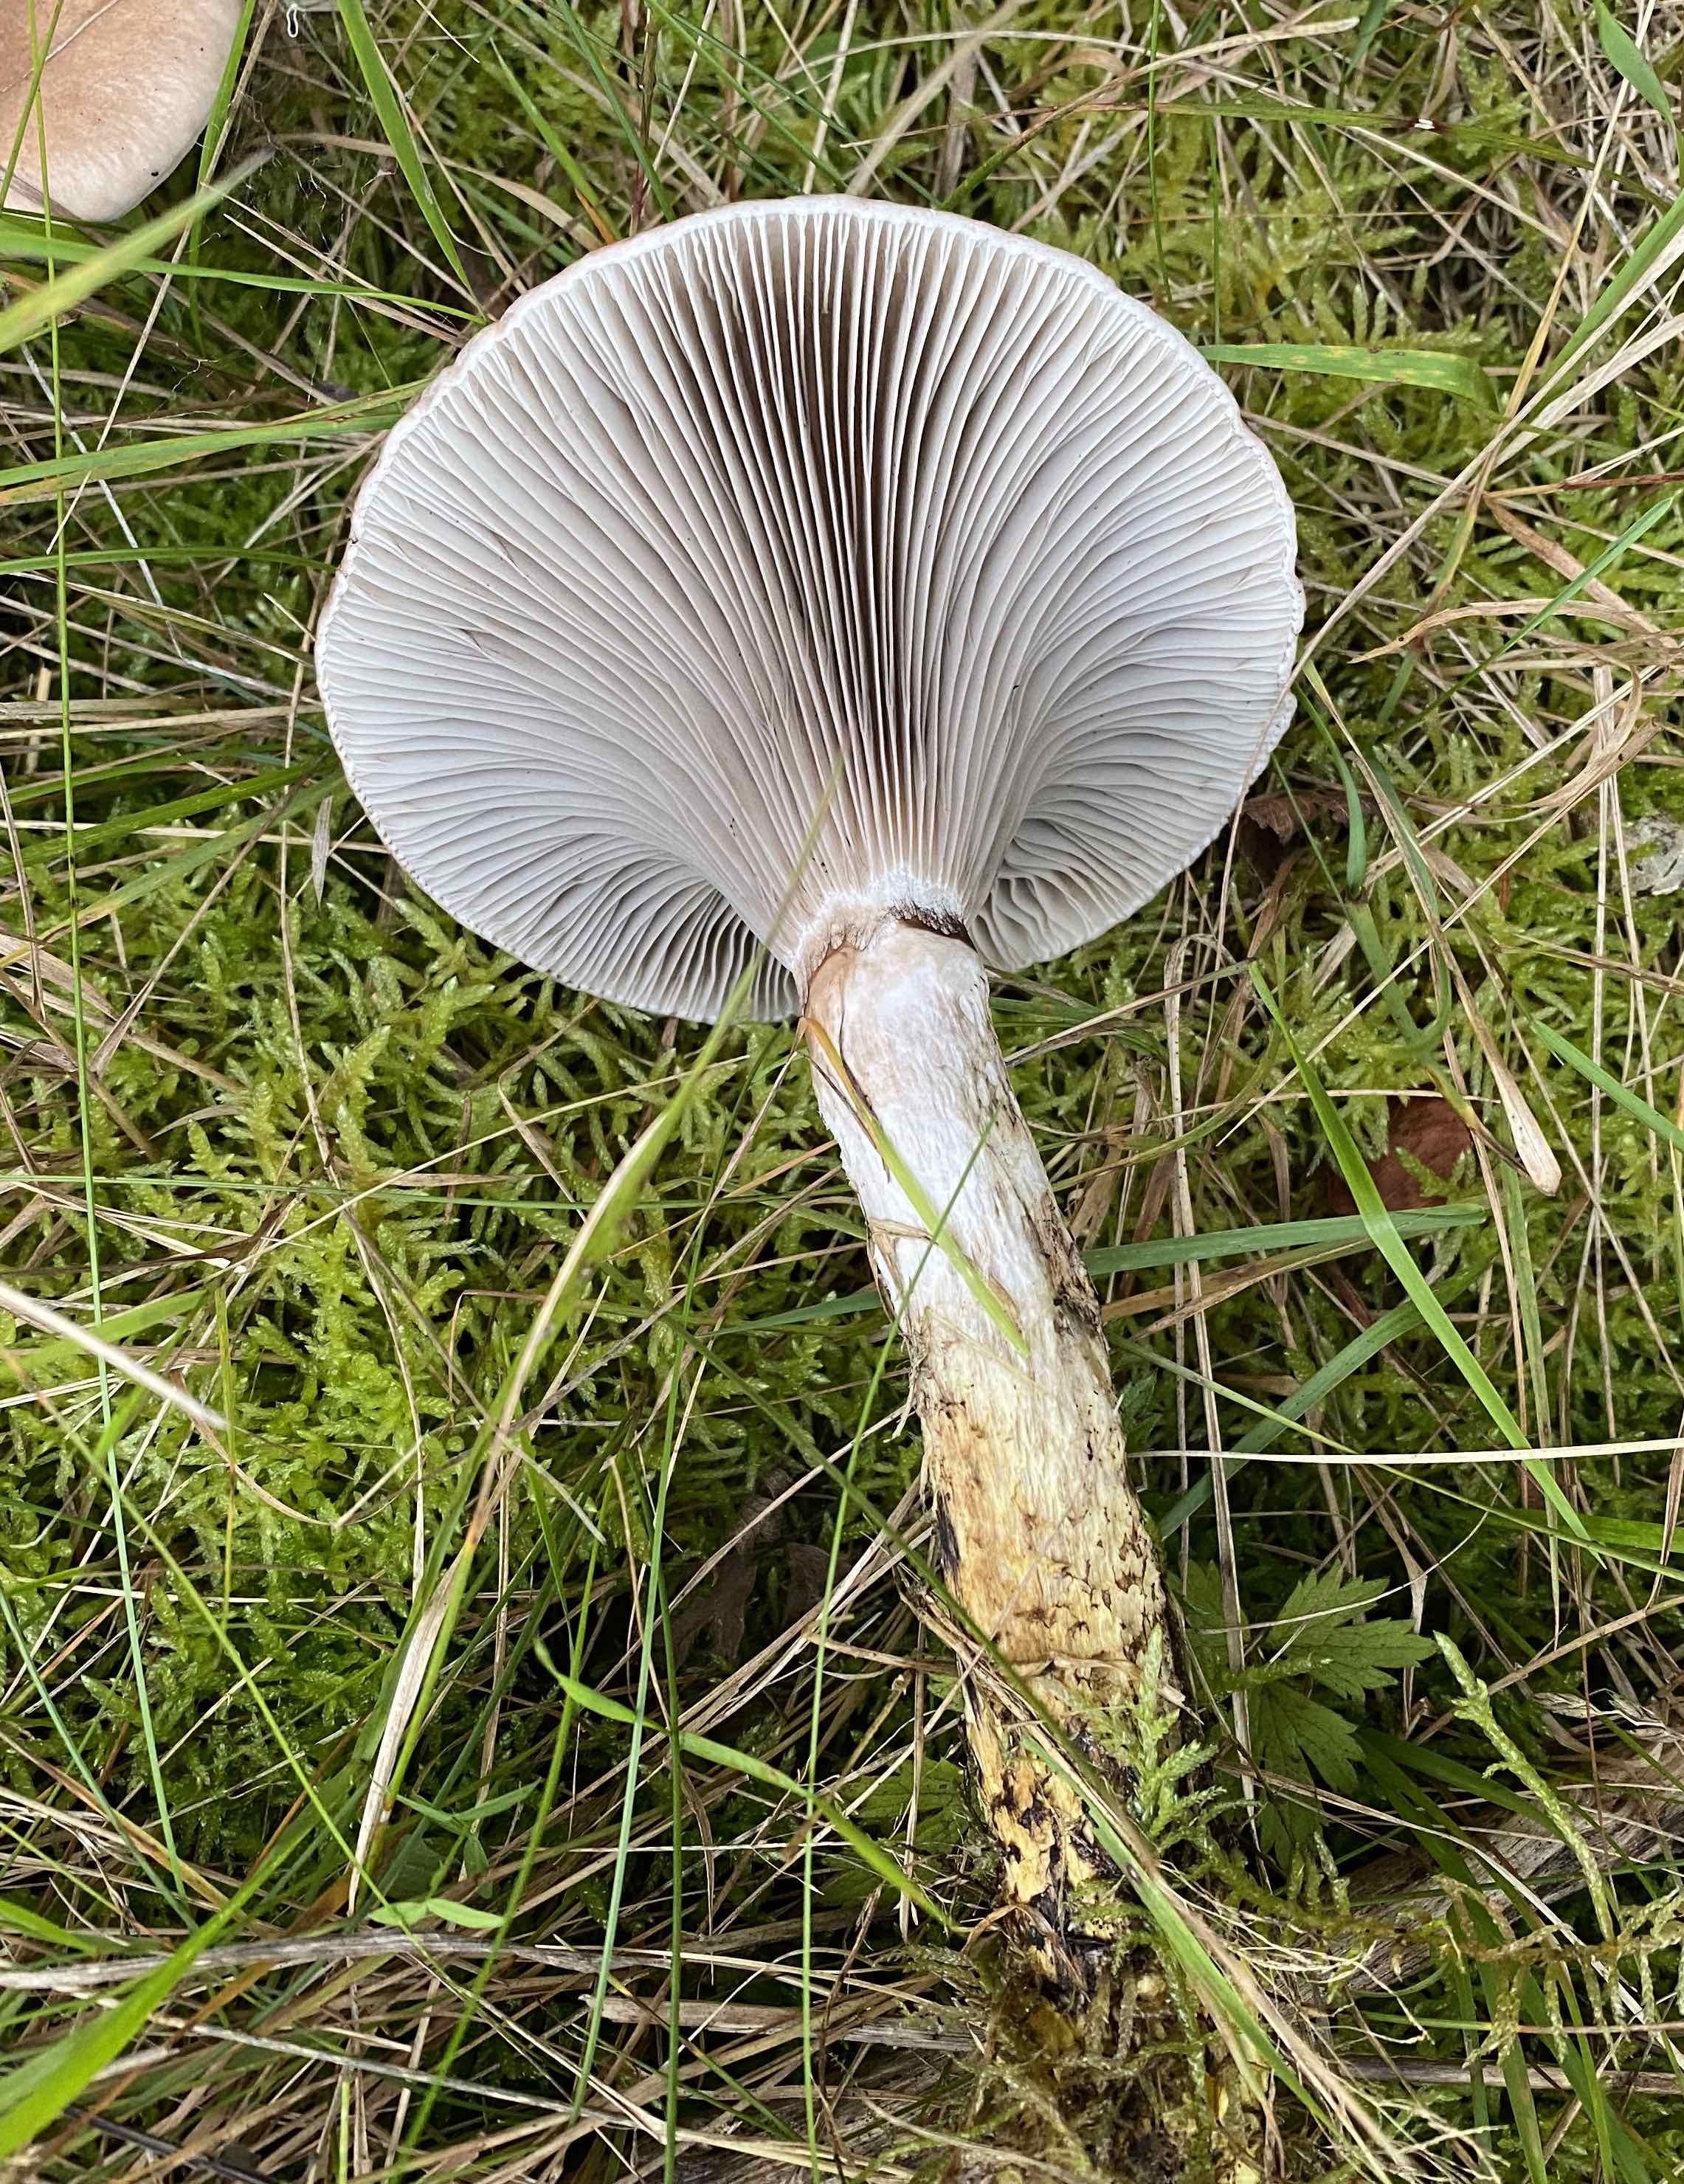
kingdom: Fungi
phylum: Basidiomycota
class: Agaricomycetes
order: Boletales
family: Gomphidiaceae
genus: Gomphidius
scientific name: Gomphidius glutinosus
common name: grå slimslør
